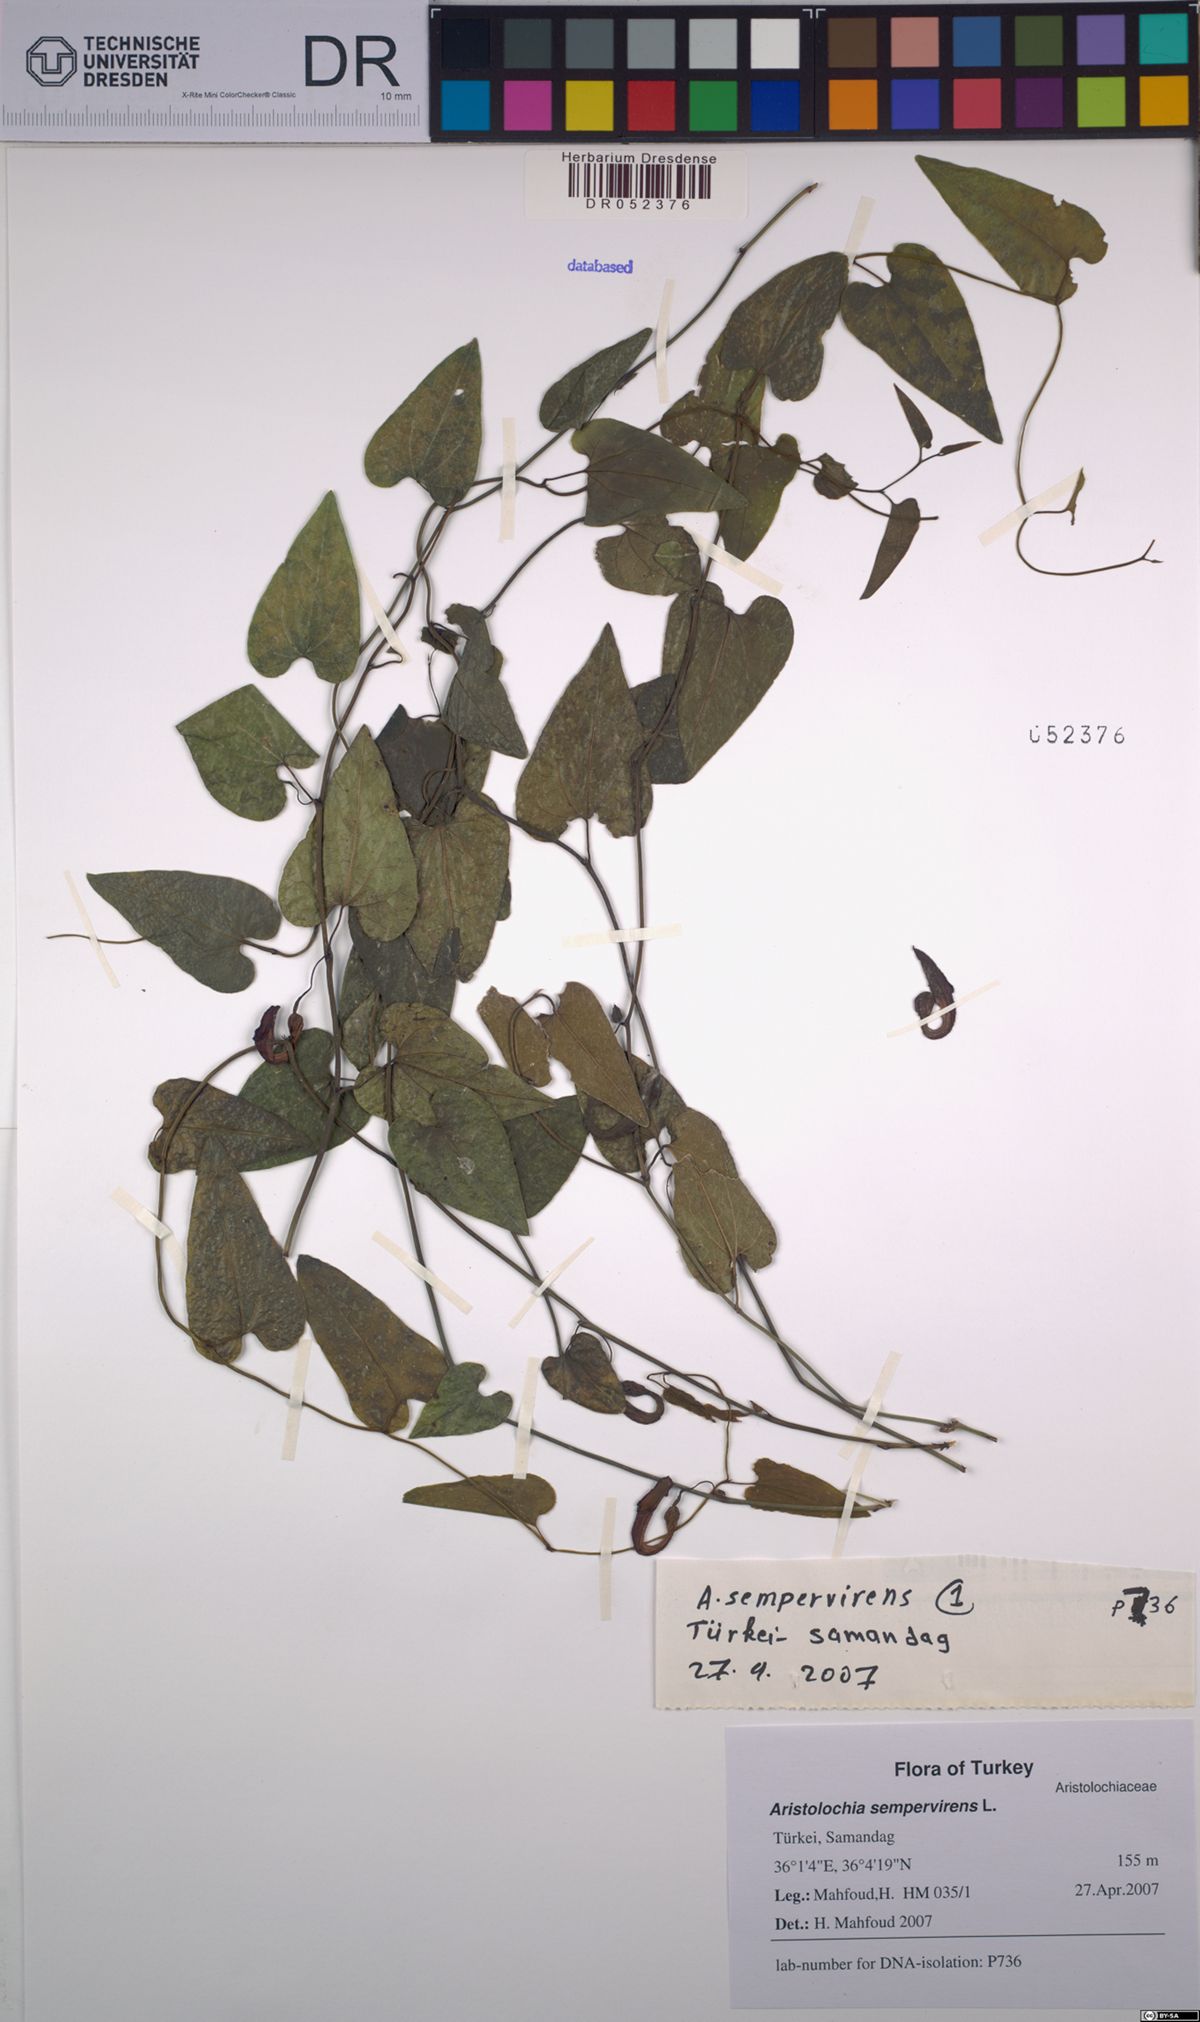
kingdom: Plantae
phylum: Tracheophyta
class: Magnoliopsida
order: Piperales
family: Aristolochiaceae
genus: Aristolochia
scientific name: Aristolochia sempervirens
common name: Long birthwort
